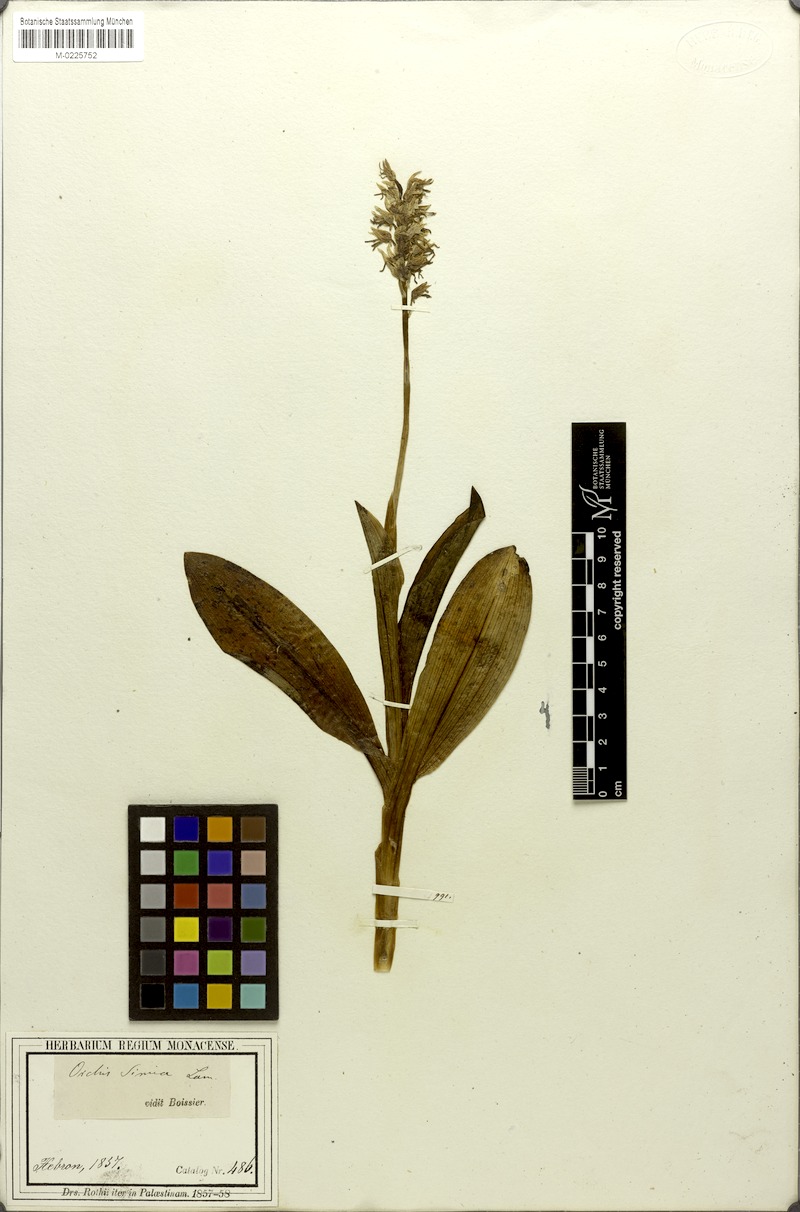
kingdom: Plantae
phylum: Tracheophyta
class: Liliopsida
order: Asparagales
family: Orchidaceae
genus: Orchis
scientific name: Orchis simia
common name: Monkey orchid
